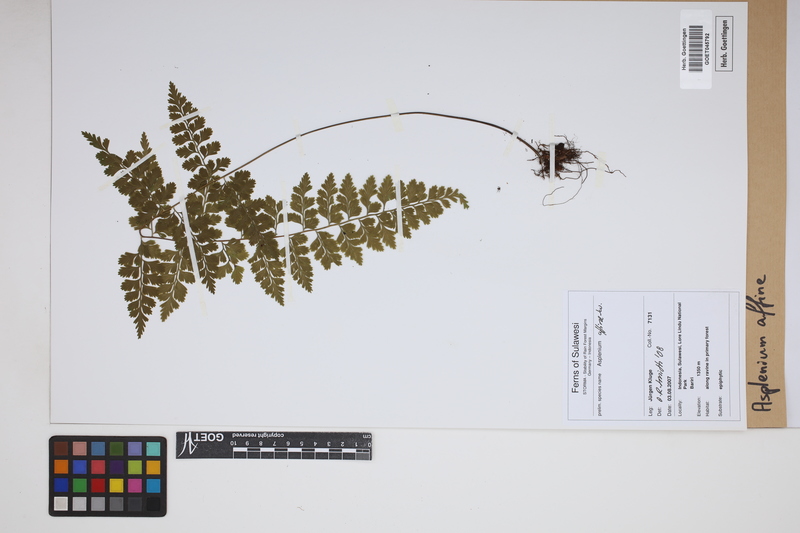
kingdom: Plantae
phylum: Tracheophyta
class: Polypodiopsida
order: Polypodiales
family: Aspleniaceae
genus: Asplenium
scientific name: Asplenium affine
